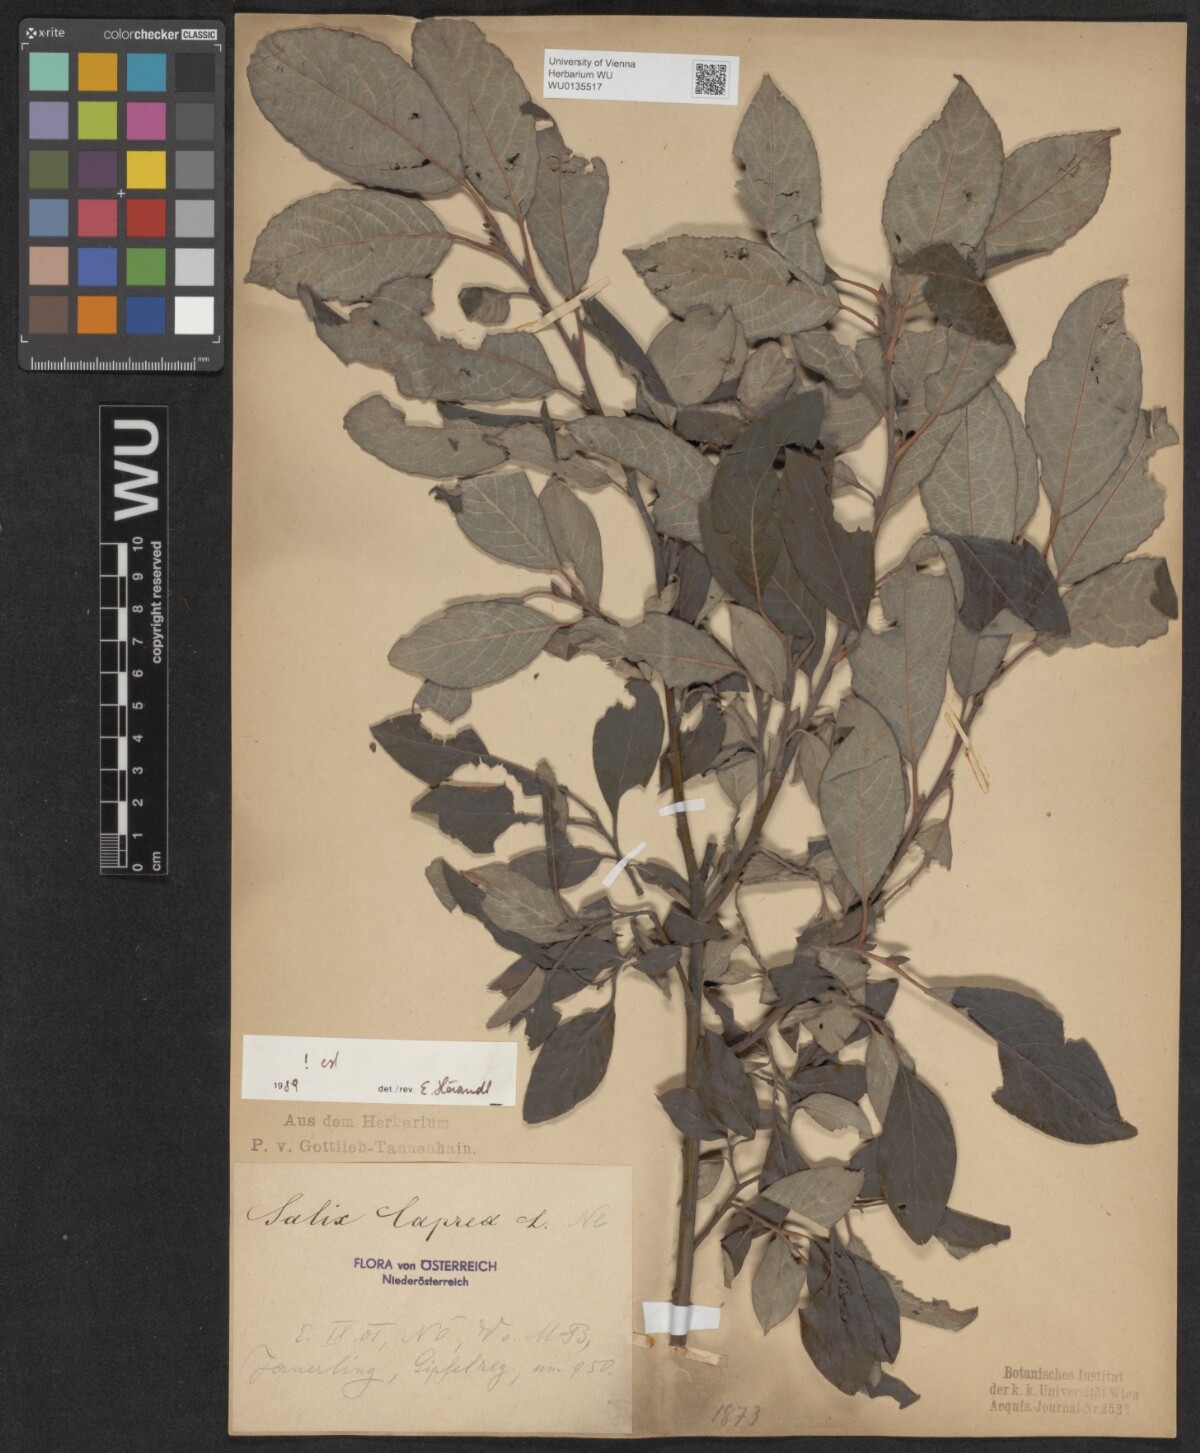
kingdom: Plantae
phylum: Tracheophyta
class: Magnoliopsida
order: Malpighiales
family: Salicaceae
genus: Salix
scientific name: Salix caprea
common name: Goat willow
